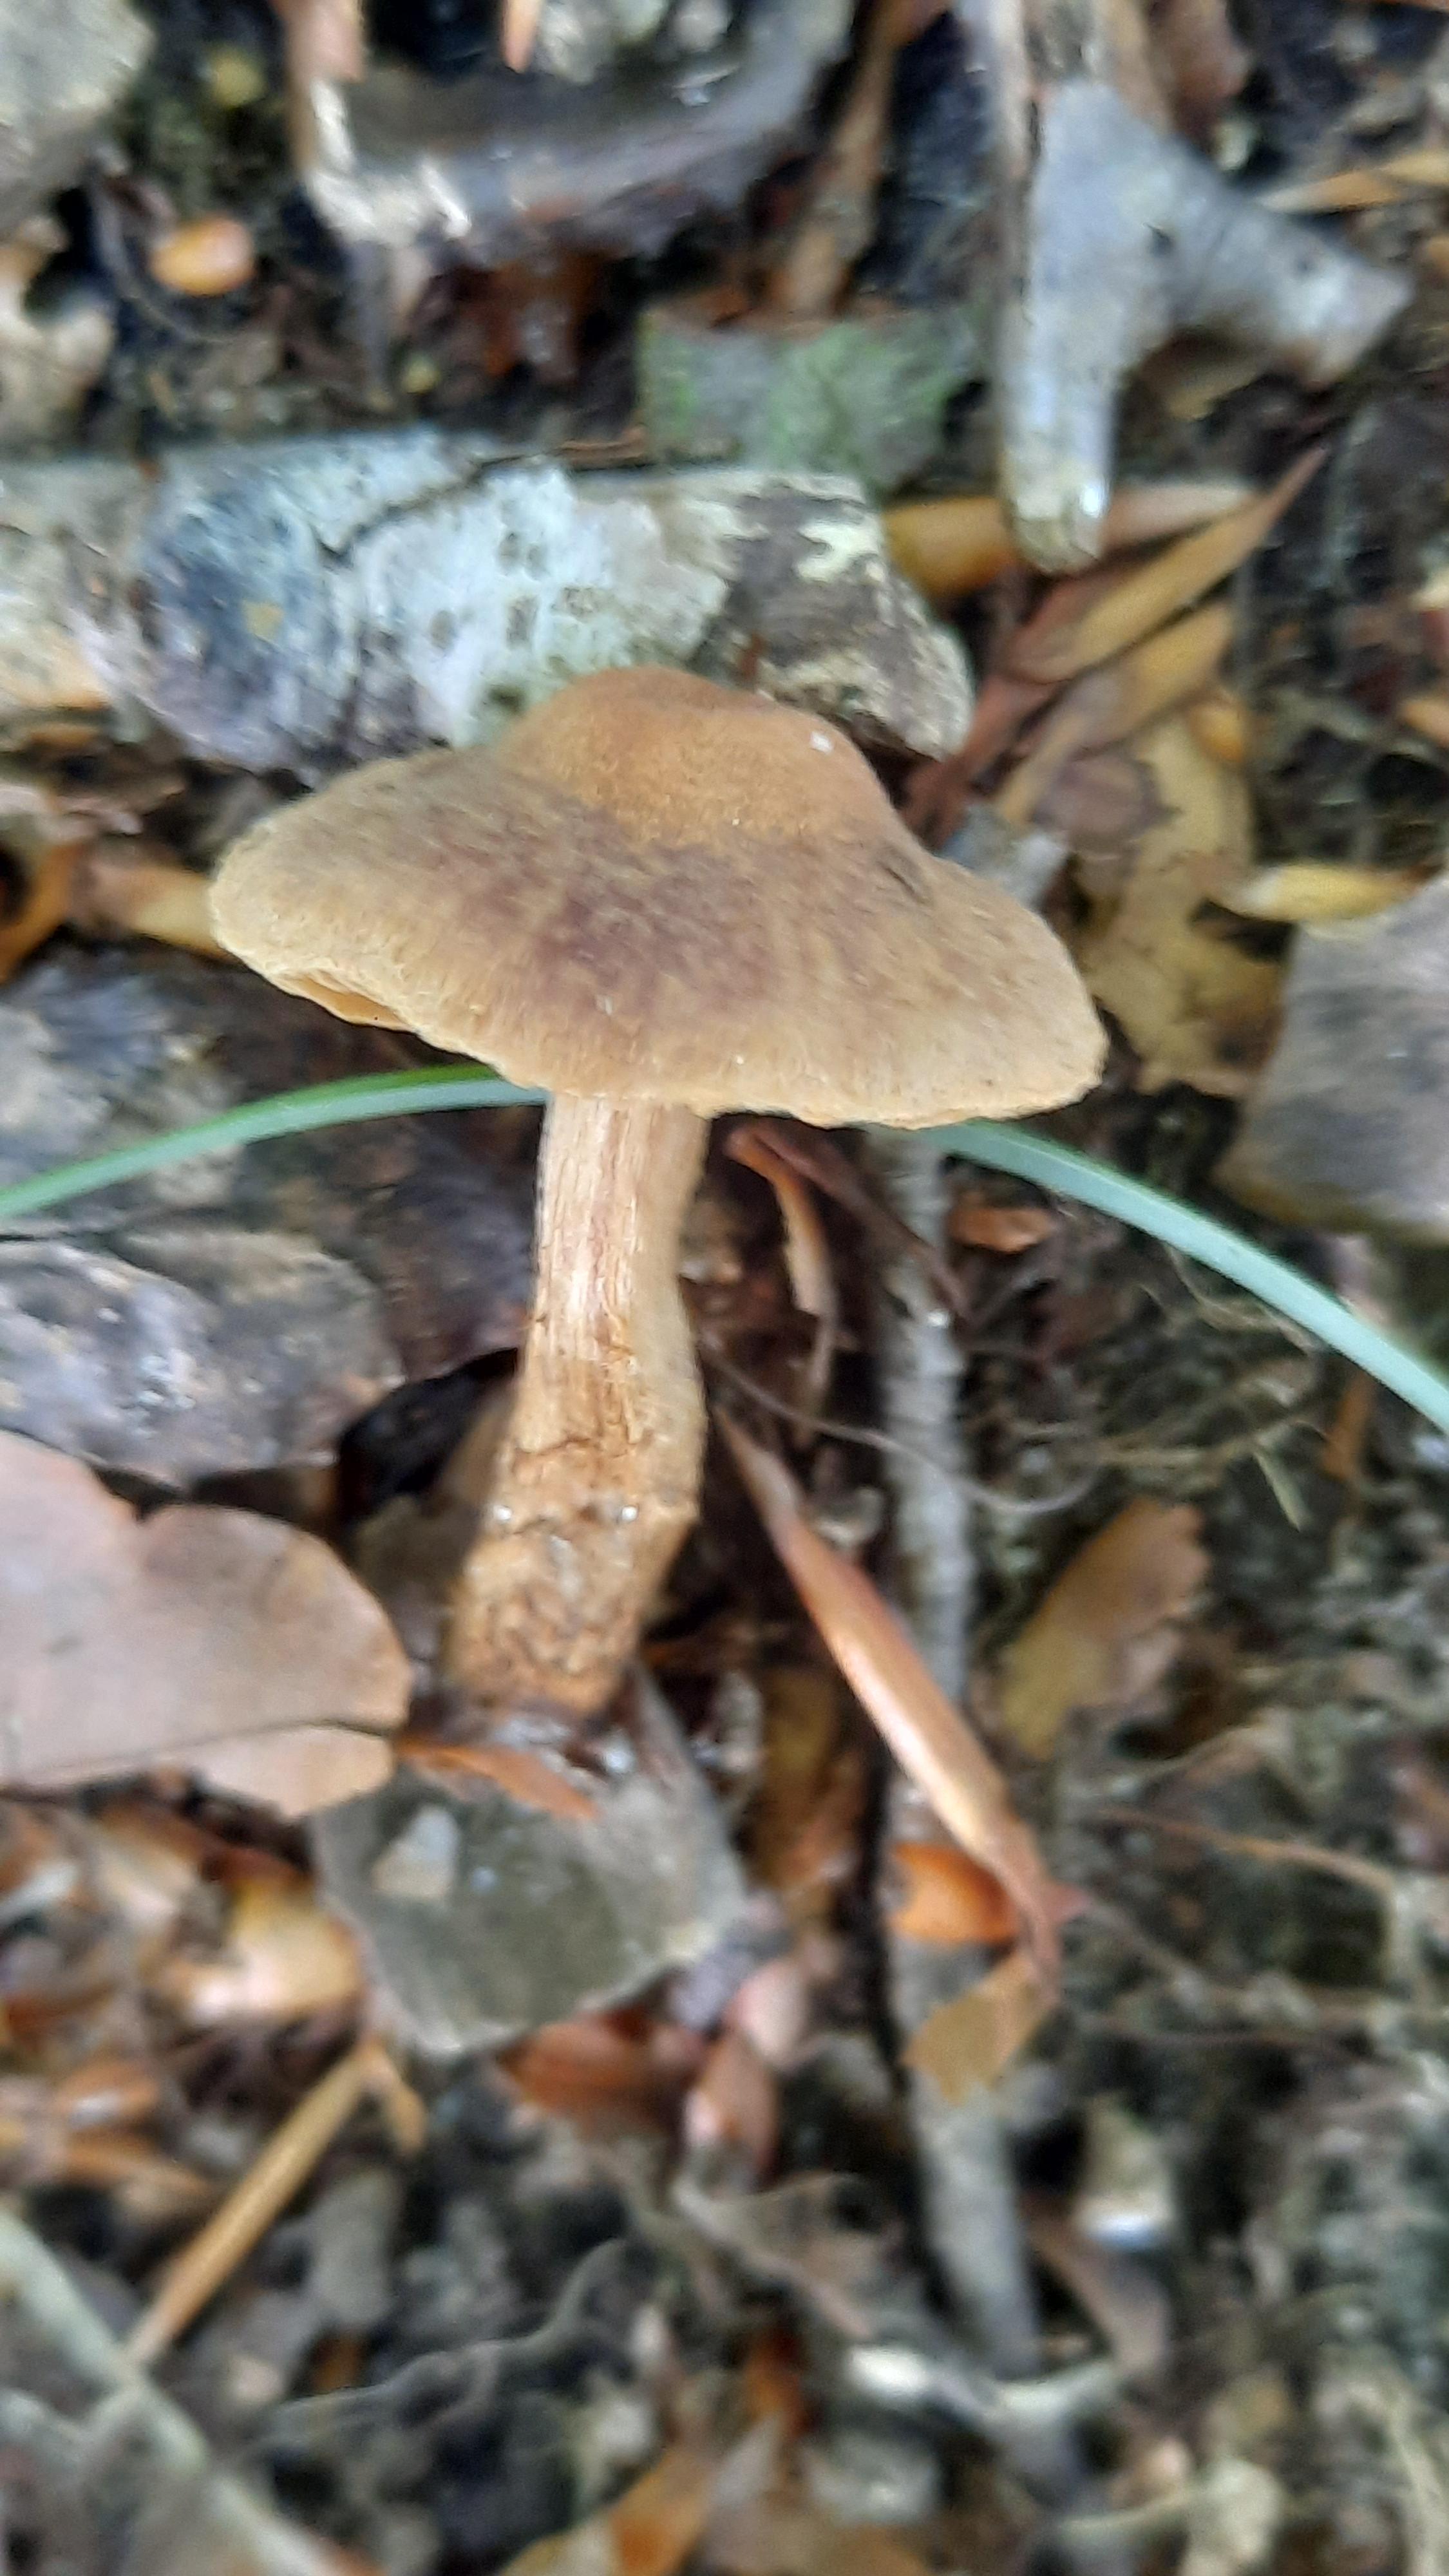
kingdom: Fungi
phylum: Basidiomycota
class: Agaricomycetes
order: Agaricales
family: Cortinariaceae
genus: Cortinarius
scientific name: Cortinarius
